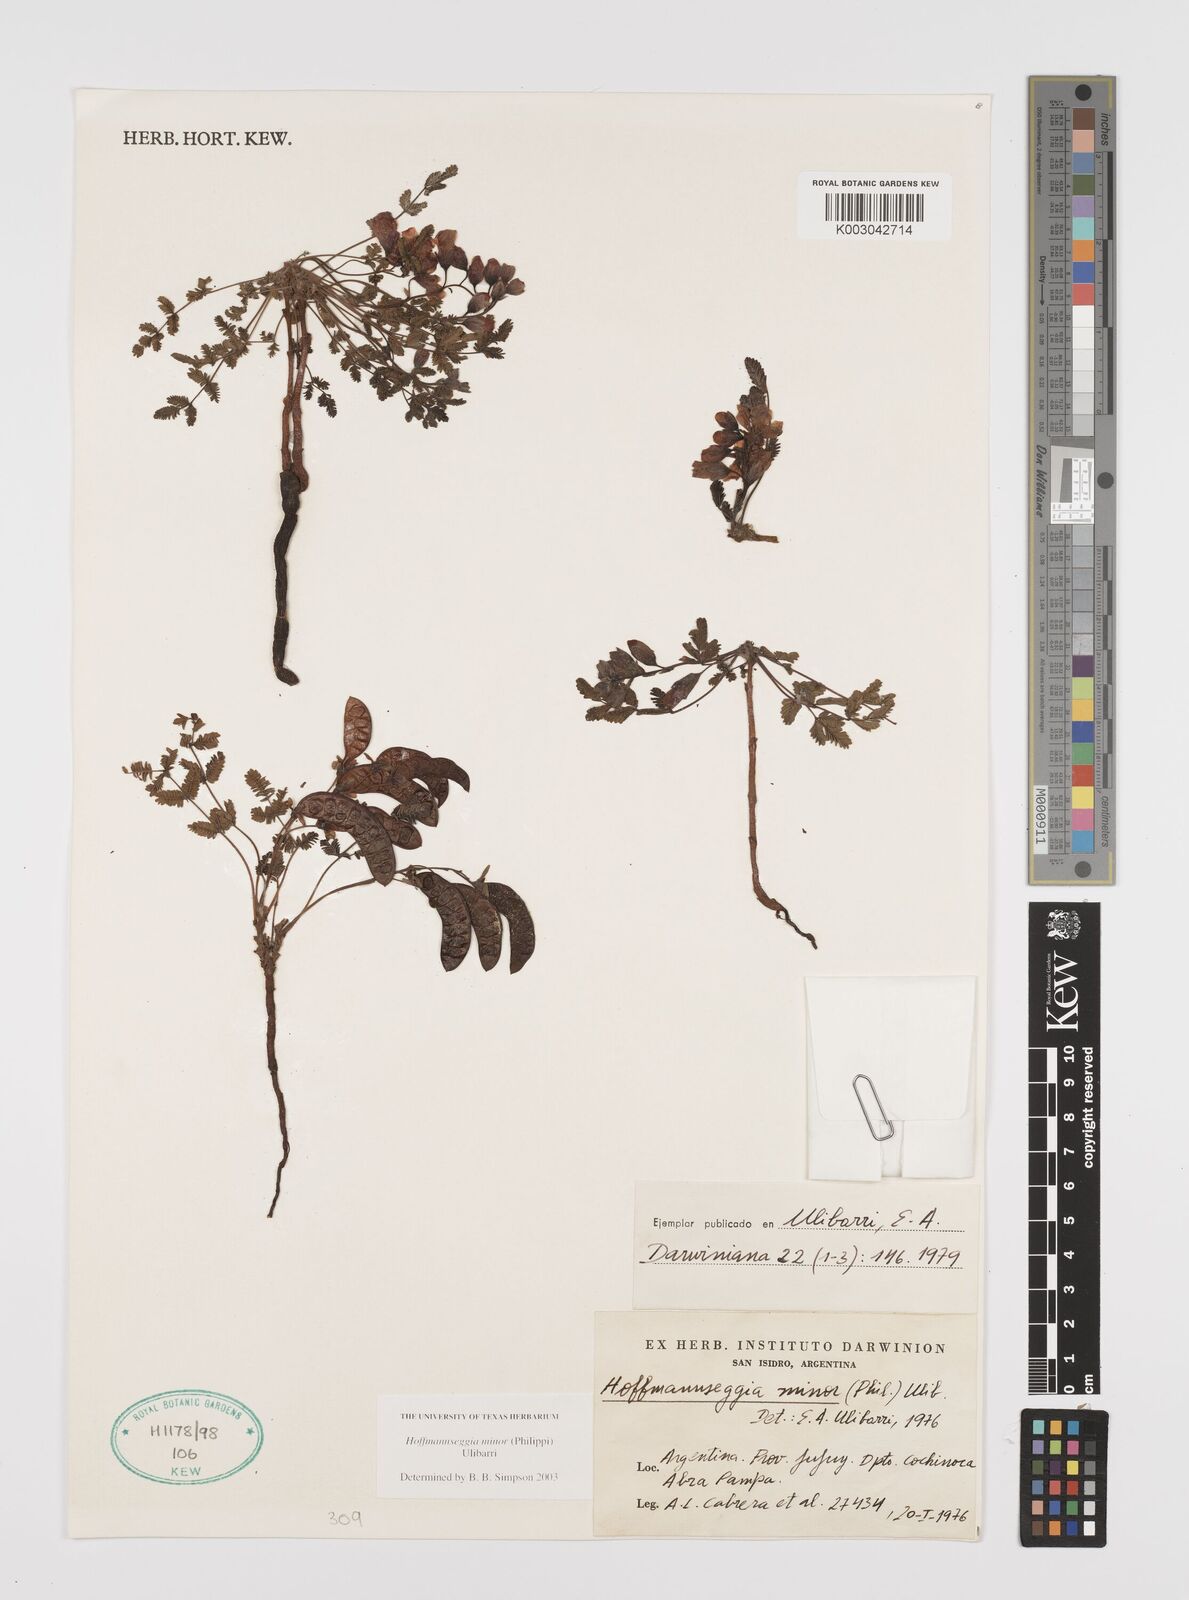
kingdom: Plantae
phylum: Tracheophyta
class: Magnoliopsida
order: Fabales
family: Fabaceae
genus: Hoffmannseggia
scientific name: Hoffmannseggia minor
